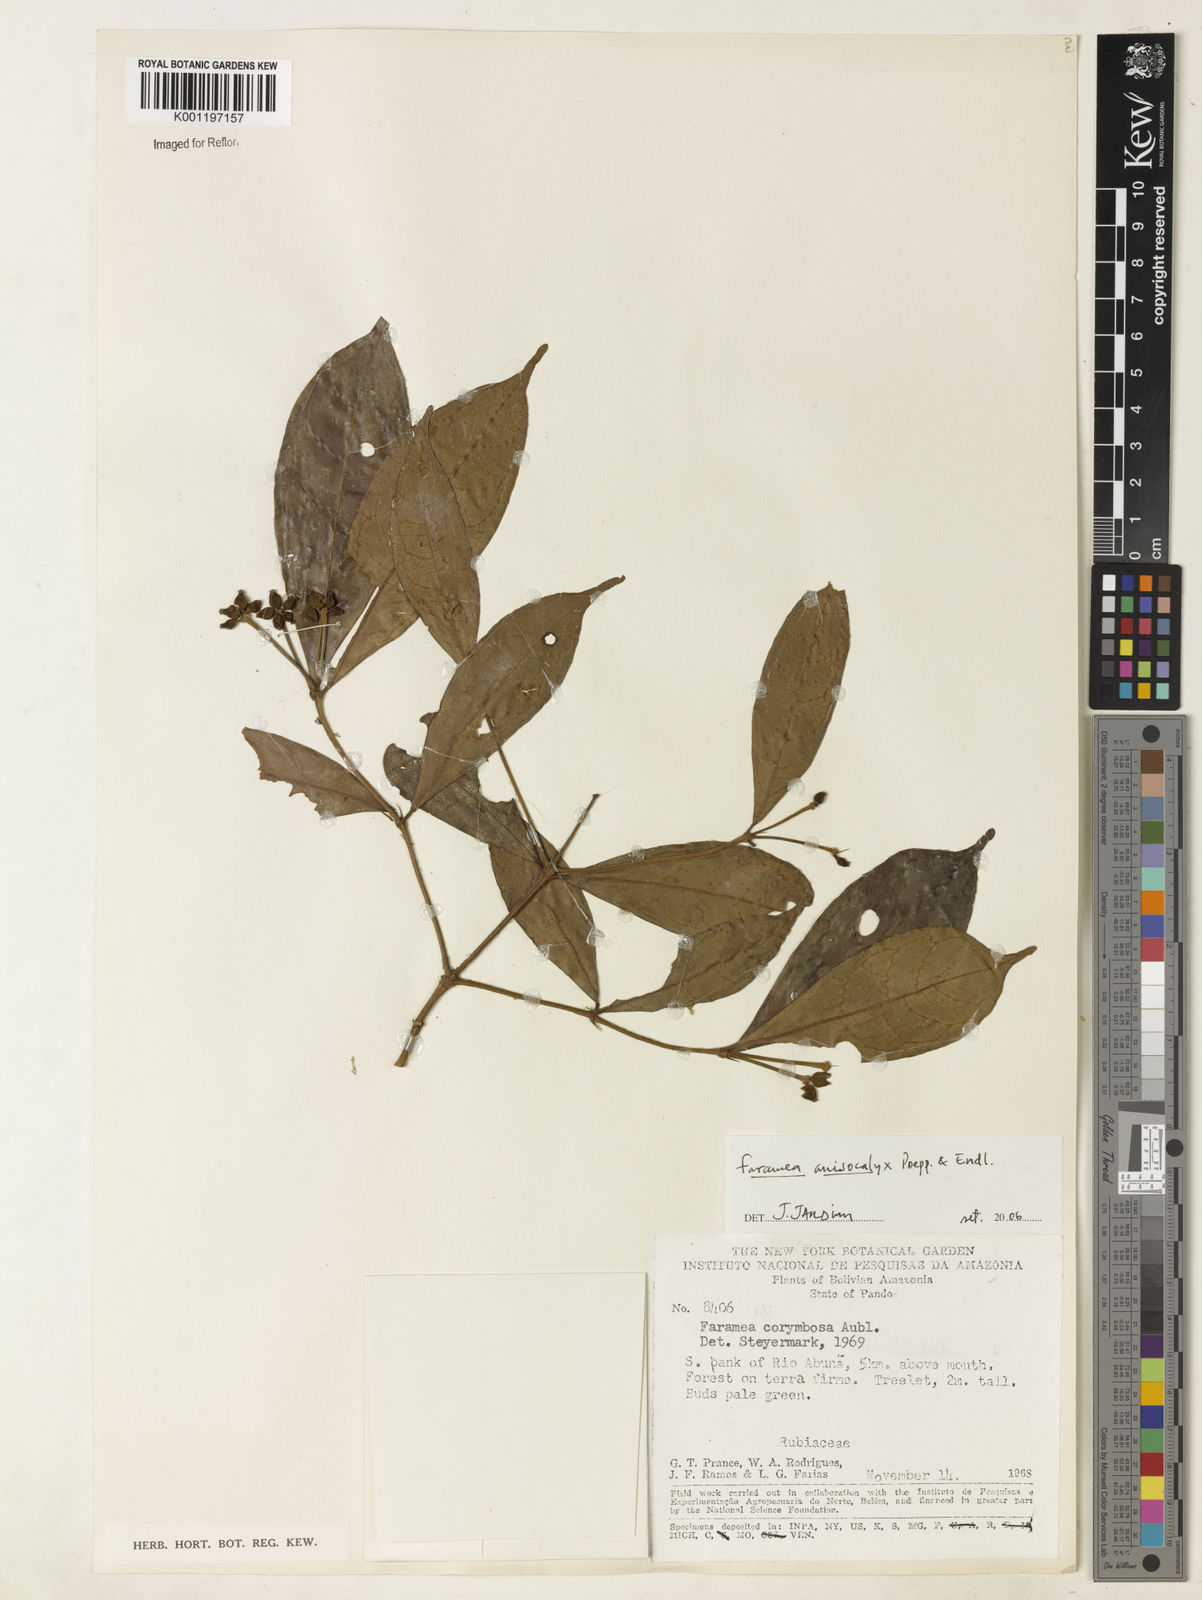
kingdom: Plantae
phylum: Tracheophyta
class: Magnoliopsida
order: Gentianales
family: Rubiaceae
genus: Faramea
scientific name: Faramea anisocalyx
